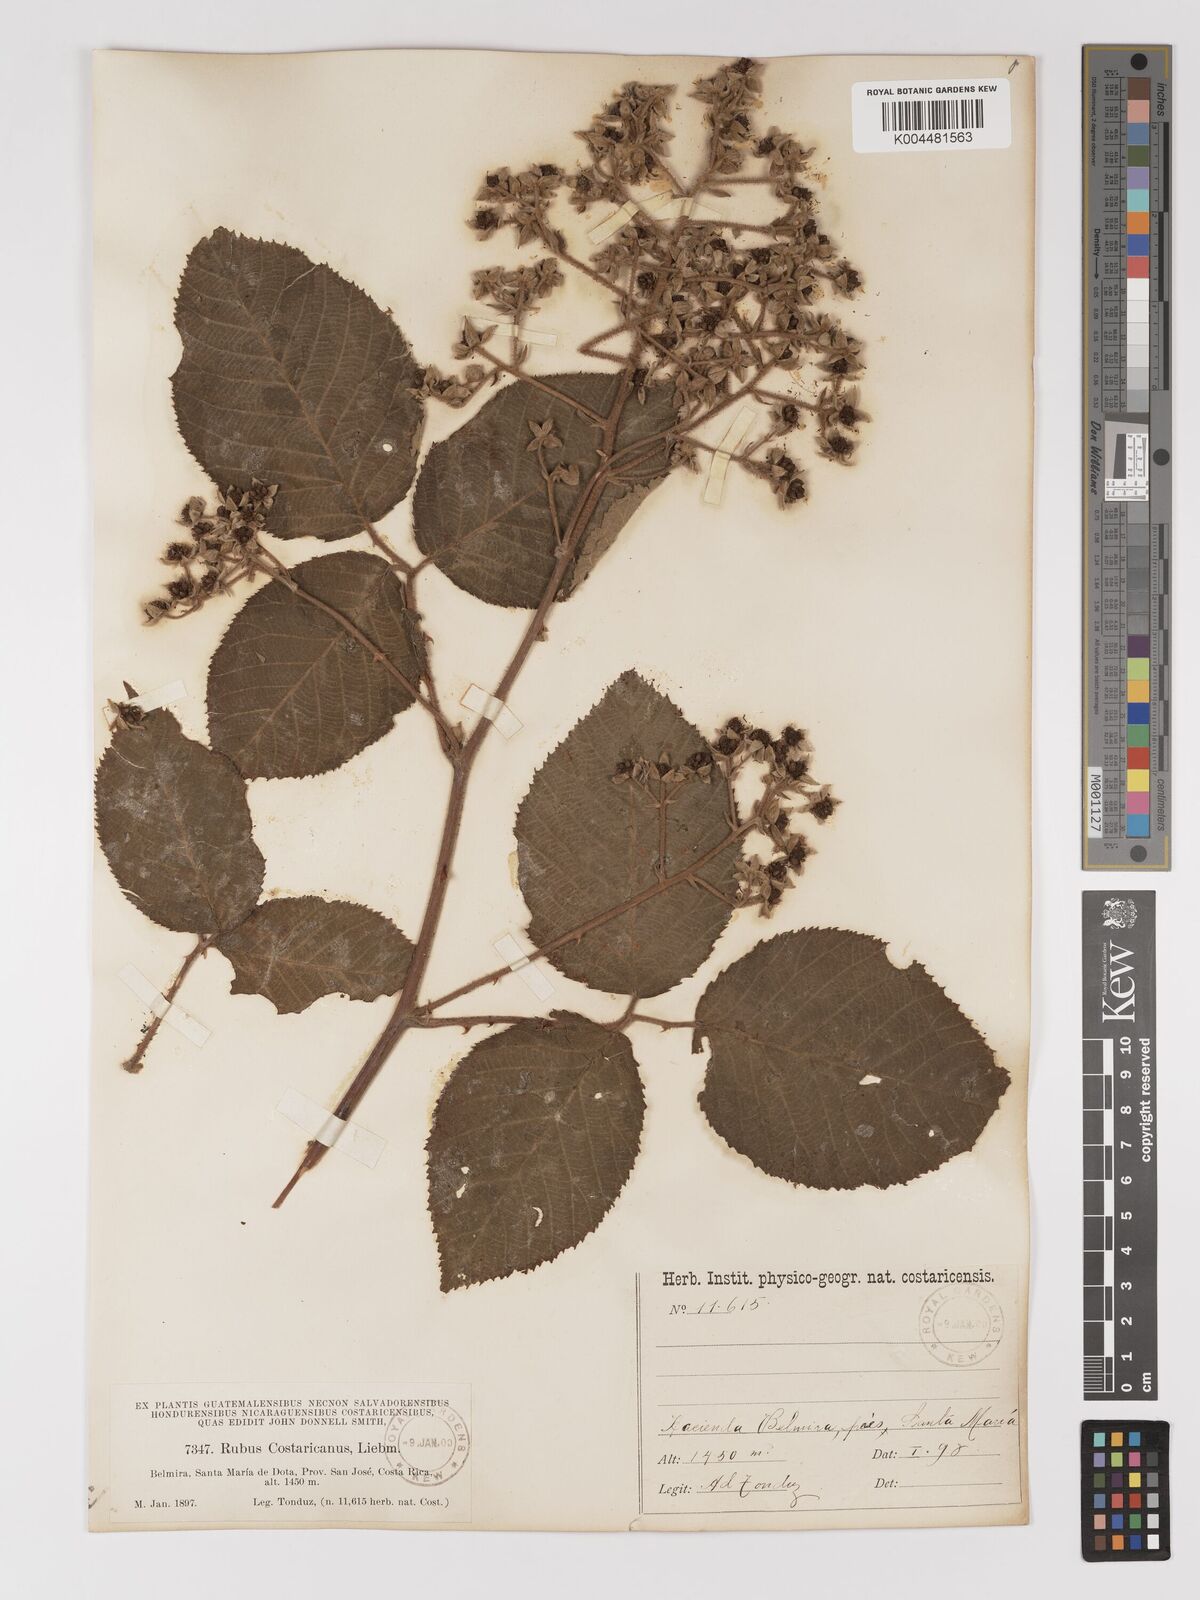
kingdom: Plantae
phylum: Tracheophyta
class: Magnoliopsida
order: Rosales
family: Rosaceae
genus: Rubus
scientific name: Rubus costaricanus
